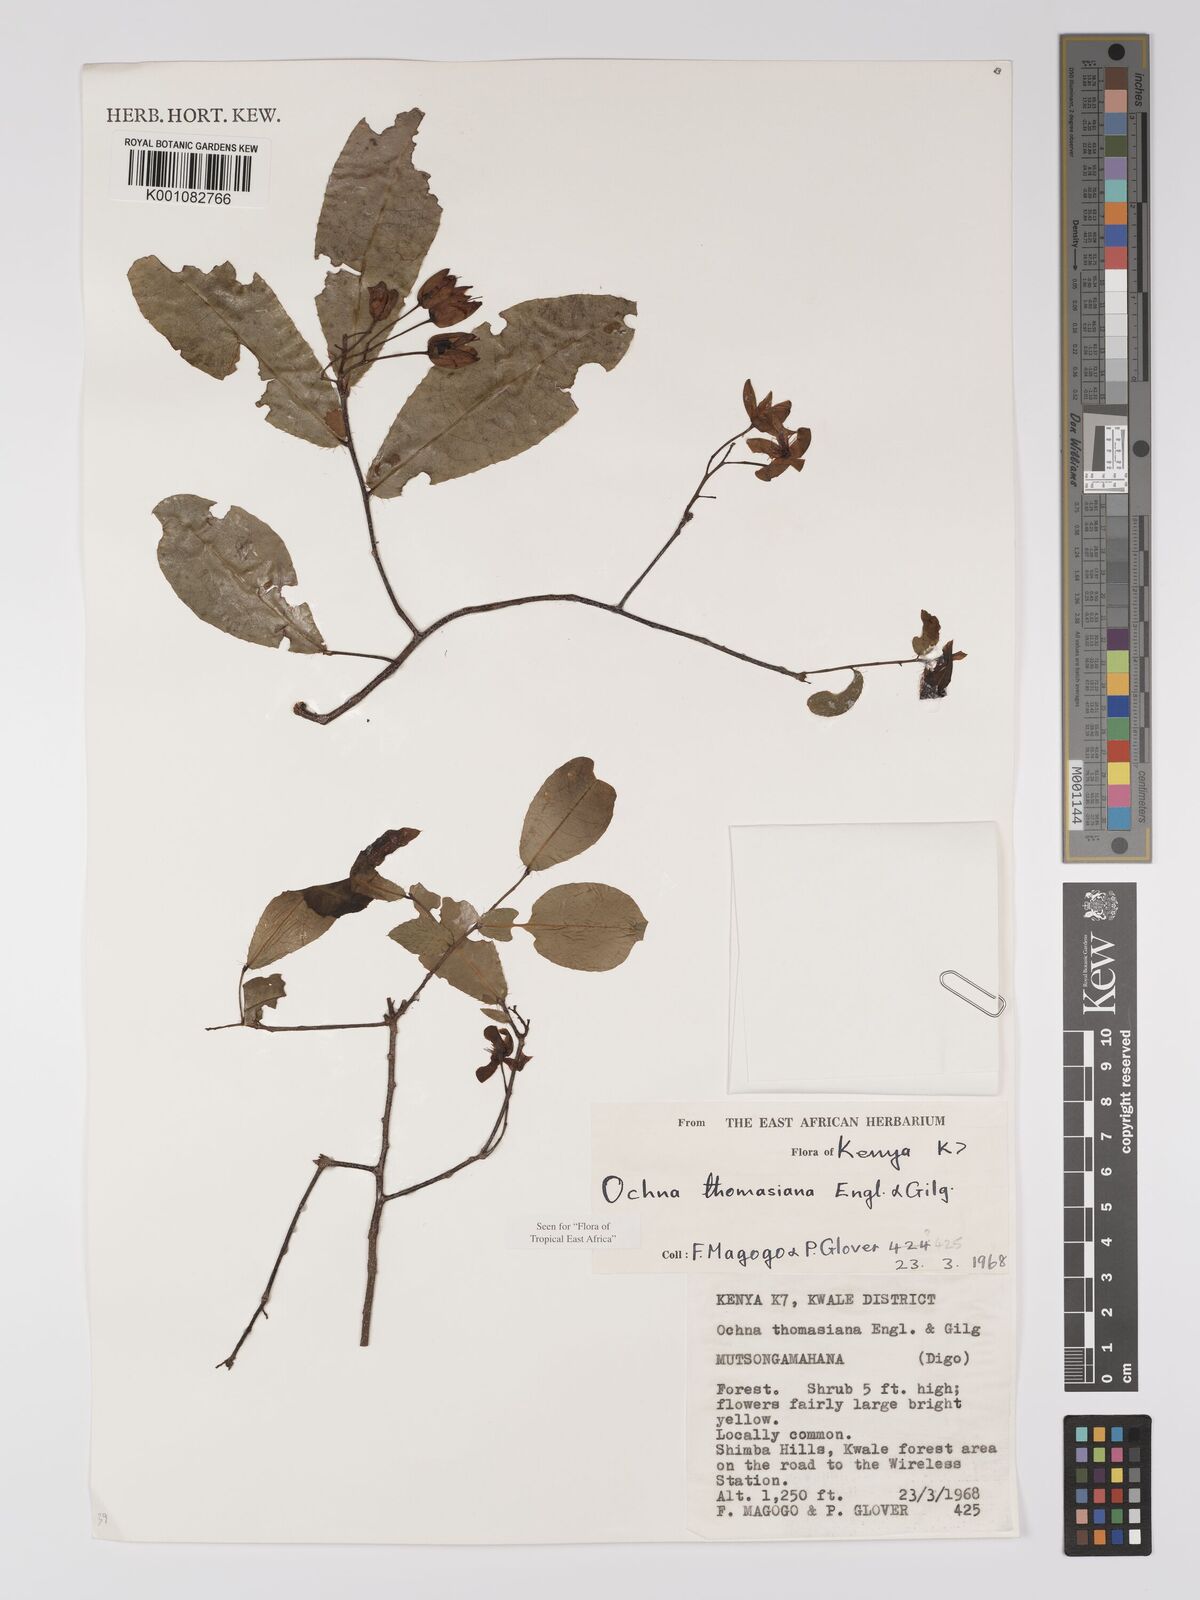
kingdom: Plantae
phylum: Tracheophyta
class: Magnoliopsida
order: Malpighiales
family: Ochnaceae
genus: Ochna
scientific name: Ochna thomasiana
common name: Thomas' bird's-eye bush
